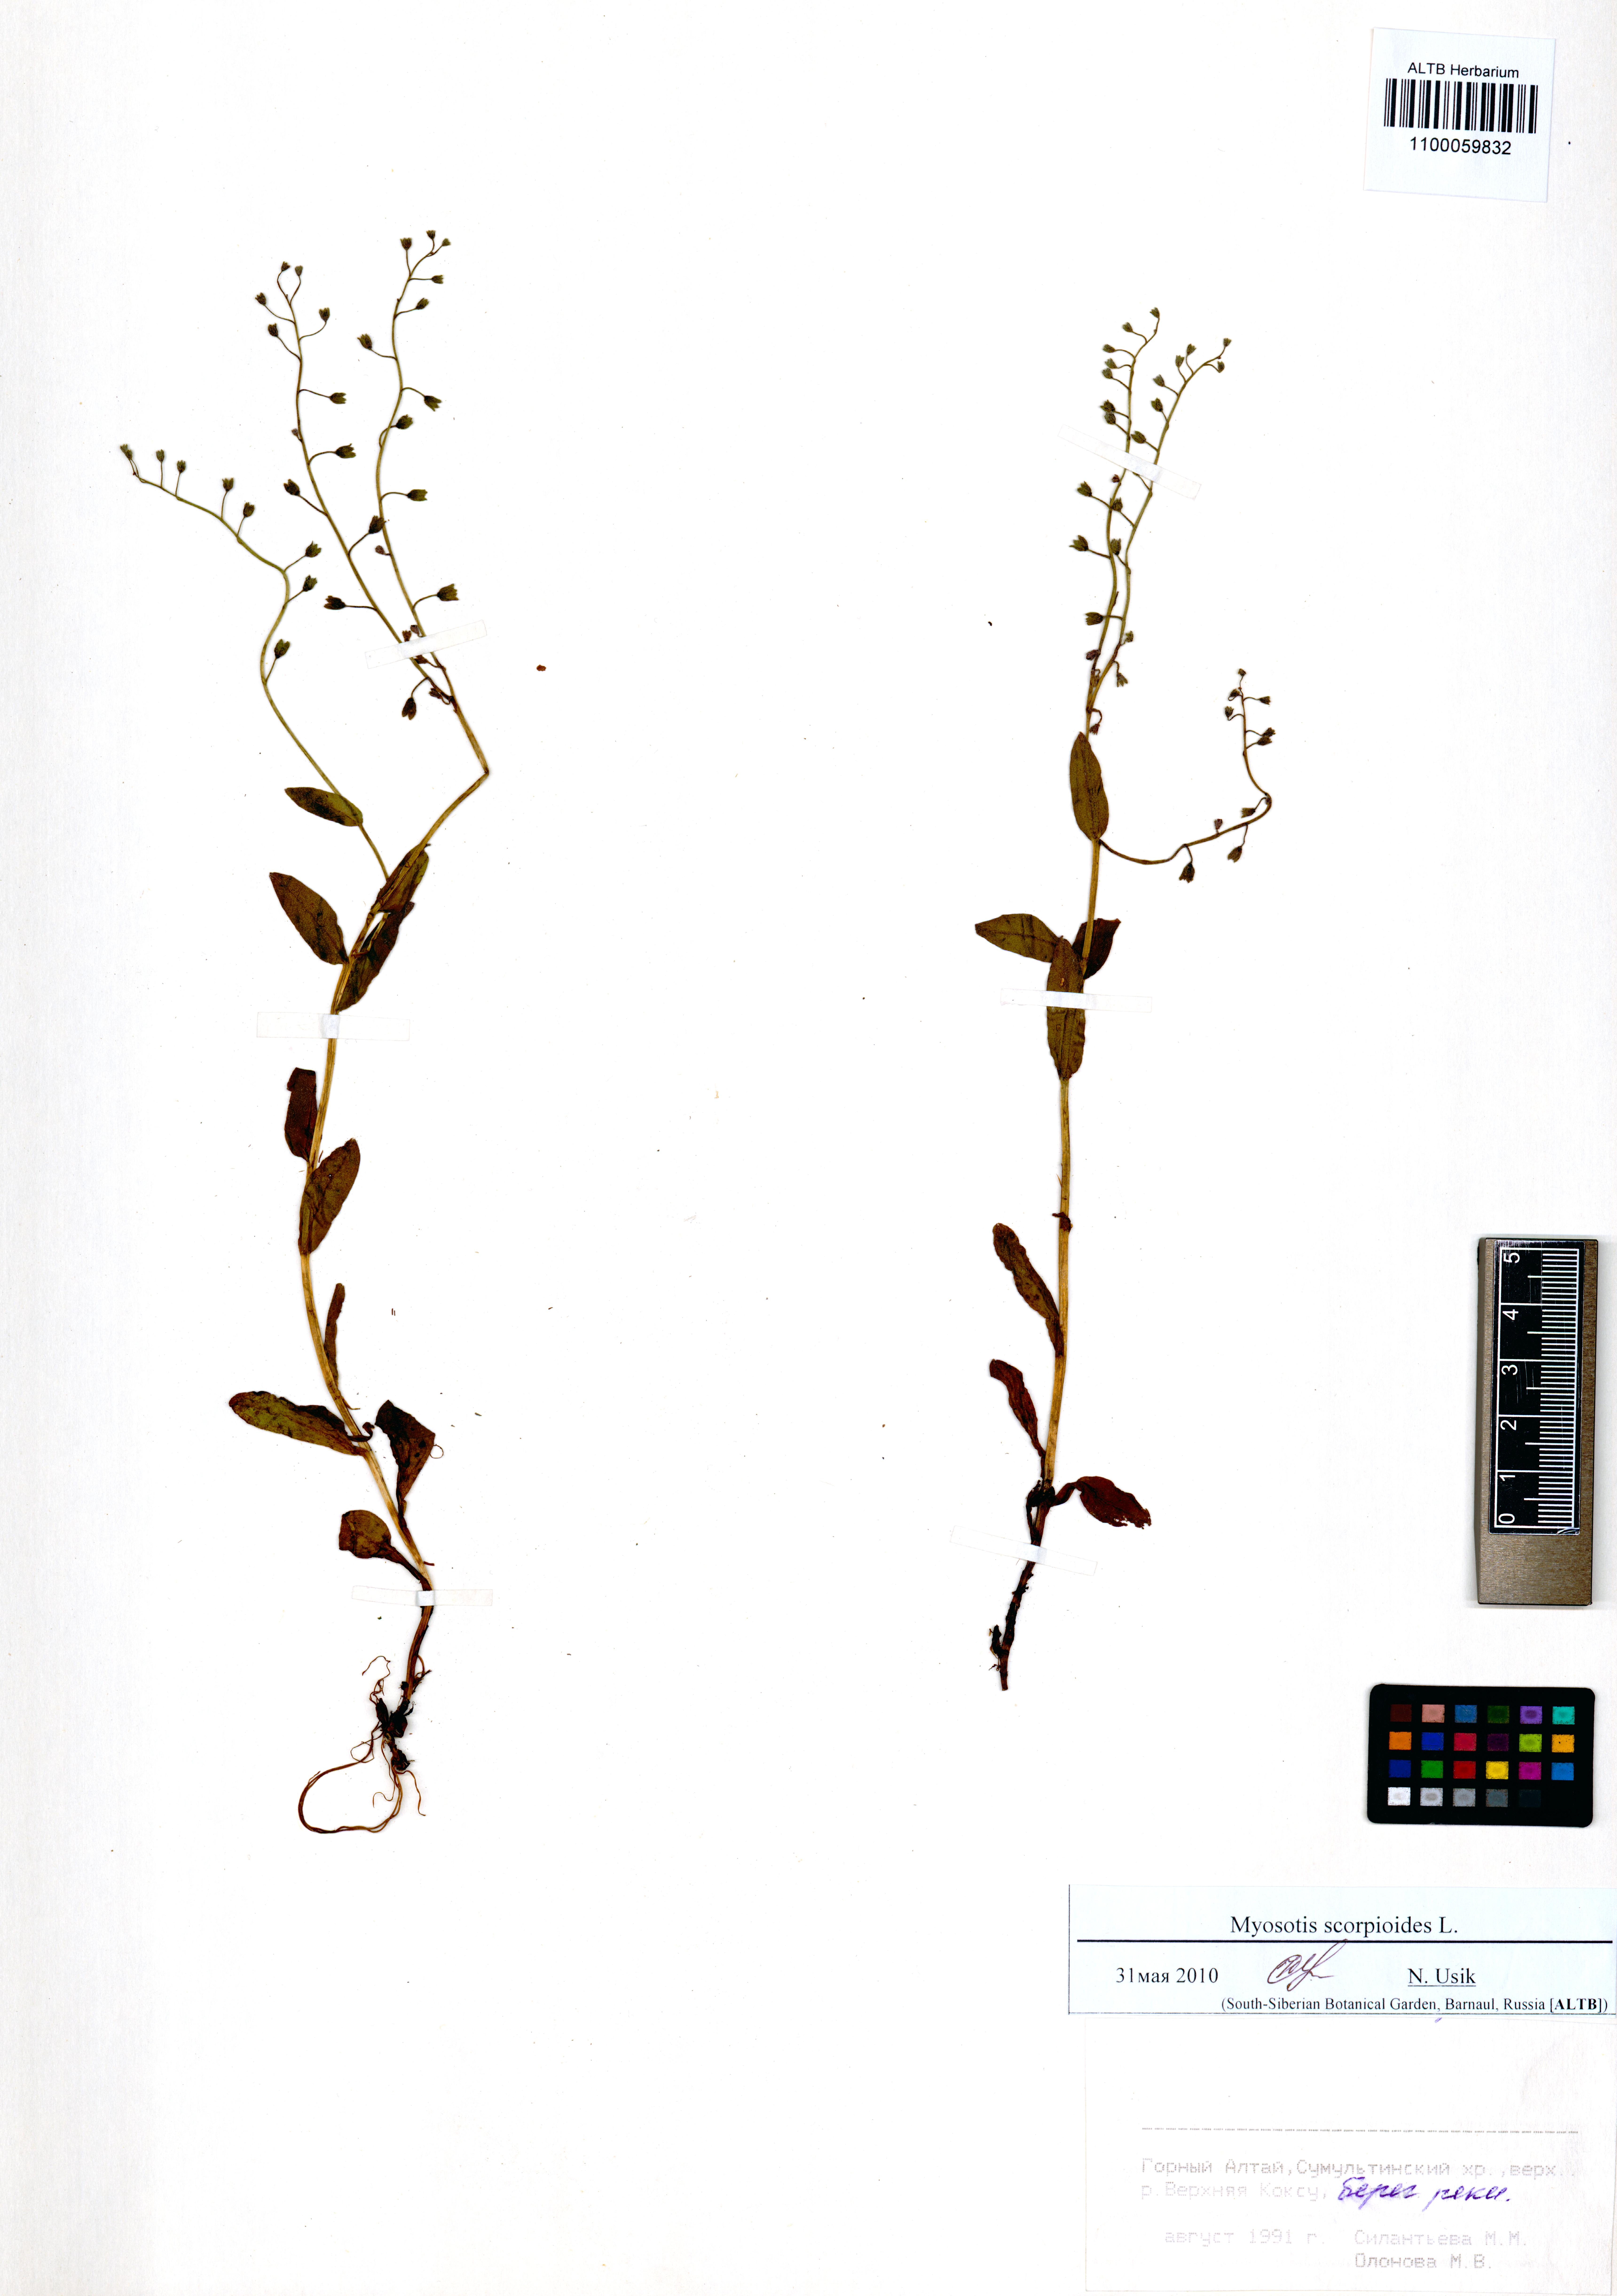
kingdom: Plantae
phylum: Tracheophyta
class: Magnoliopsida
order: Boraginales
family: Boraginaceae
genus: Myosotis
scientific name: Myosotis scorpioides
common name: Water forget-me-not
